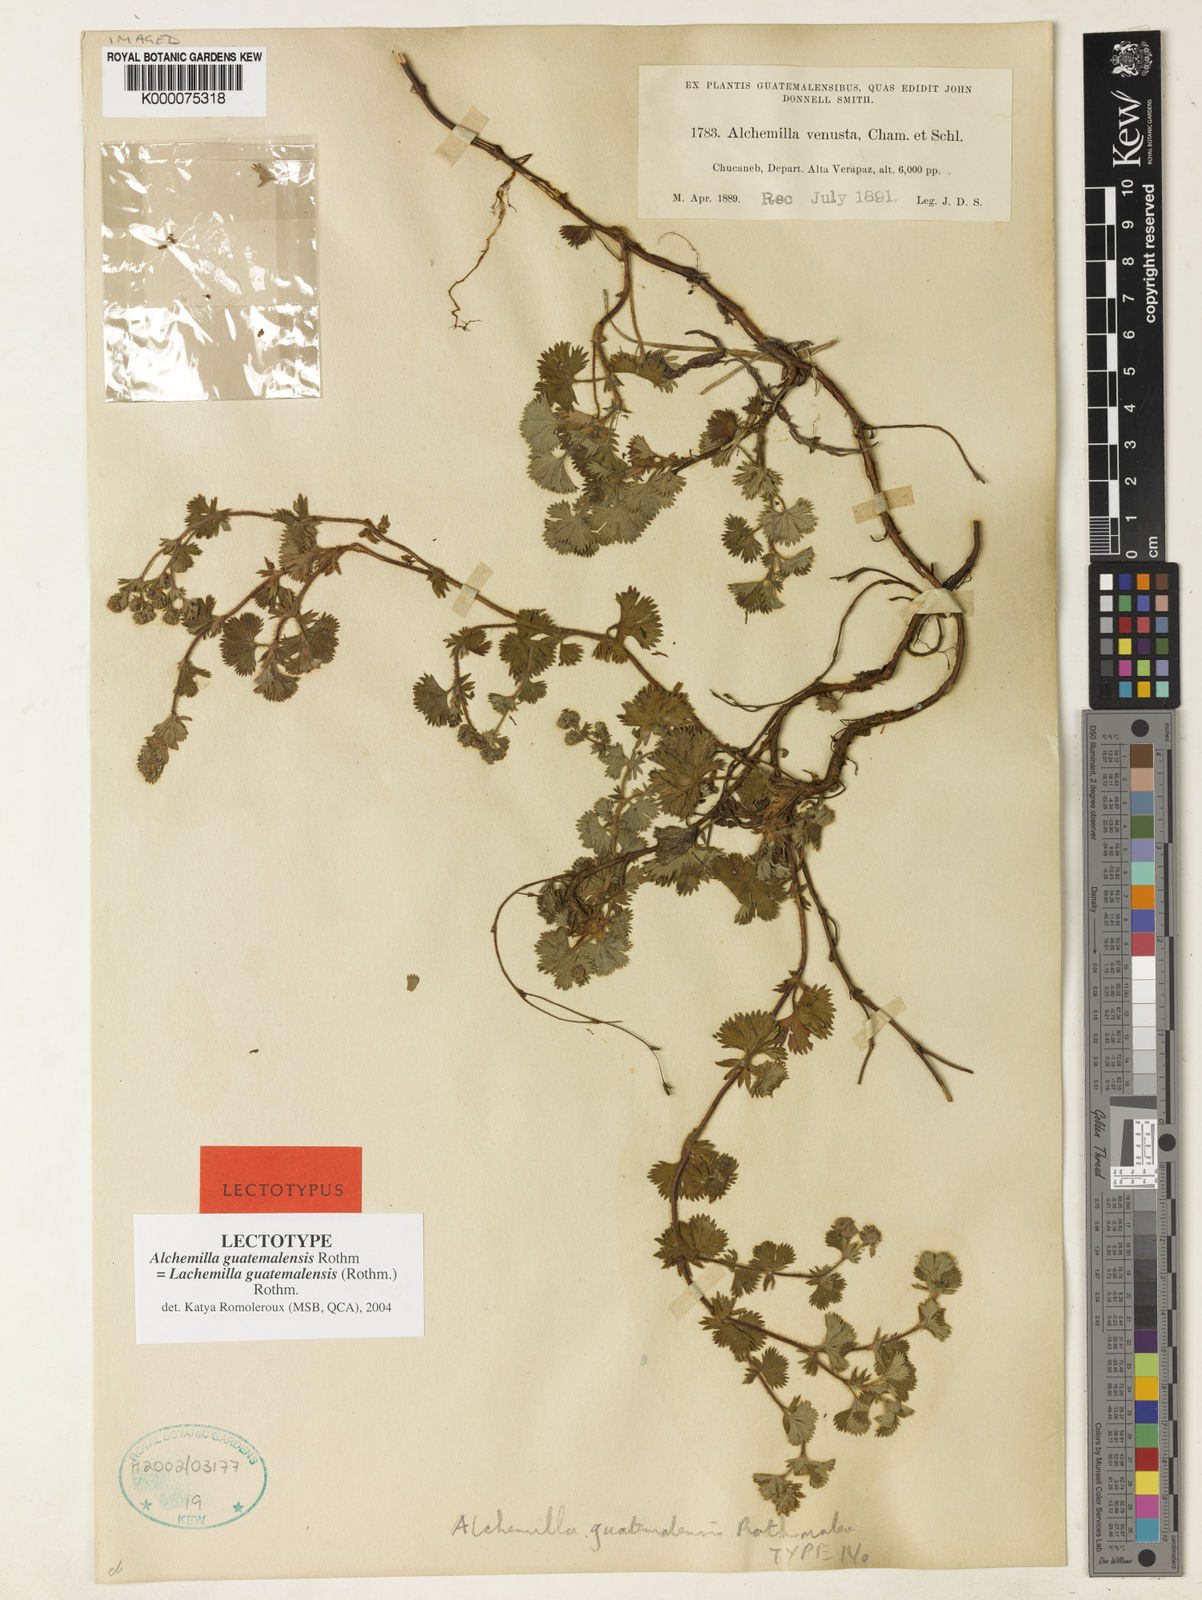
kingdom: Plantae
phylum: Tracheophyta
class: Magnoliopsida
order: Rosales
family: Rosaceae
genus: Lachemilla
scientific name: Lachemilla venusta
